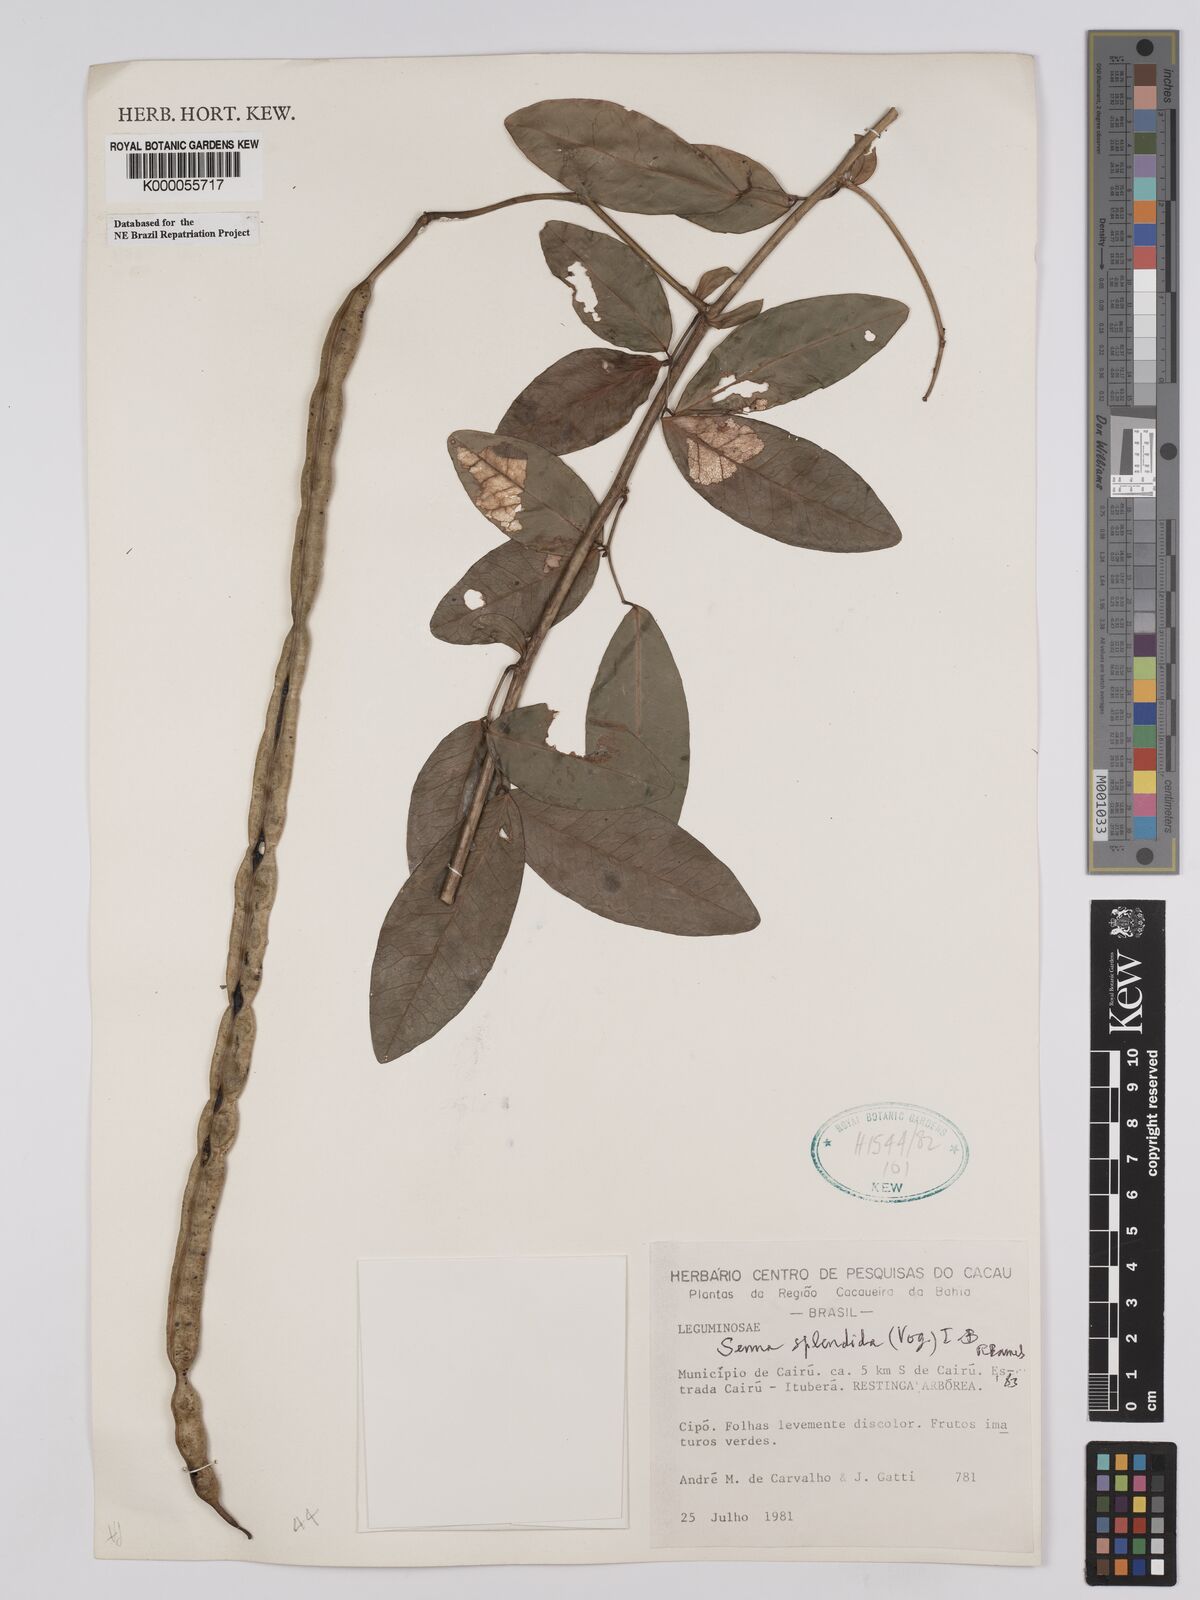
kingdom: Plantae
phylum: Tracheophyta
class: Magnoliopsida
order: Fabales
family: Fabaceae
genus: Senna
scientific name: Senna splendida
